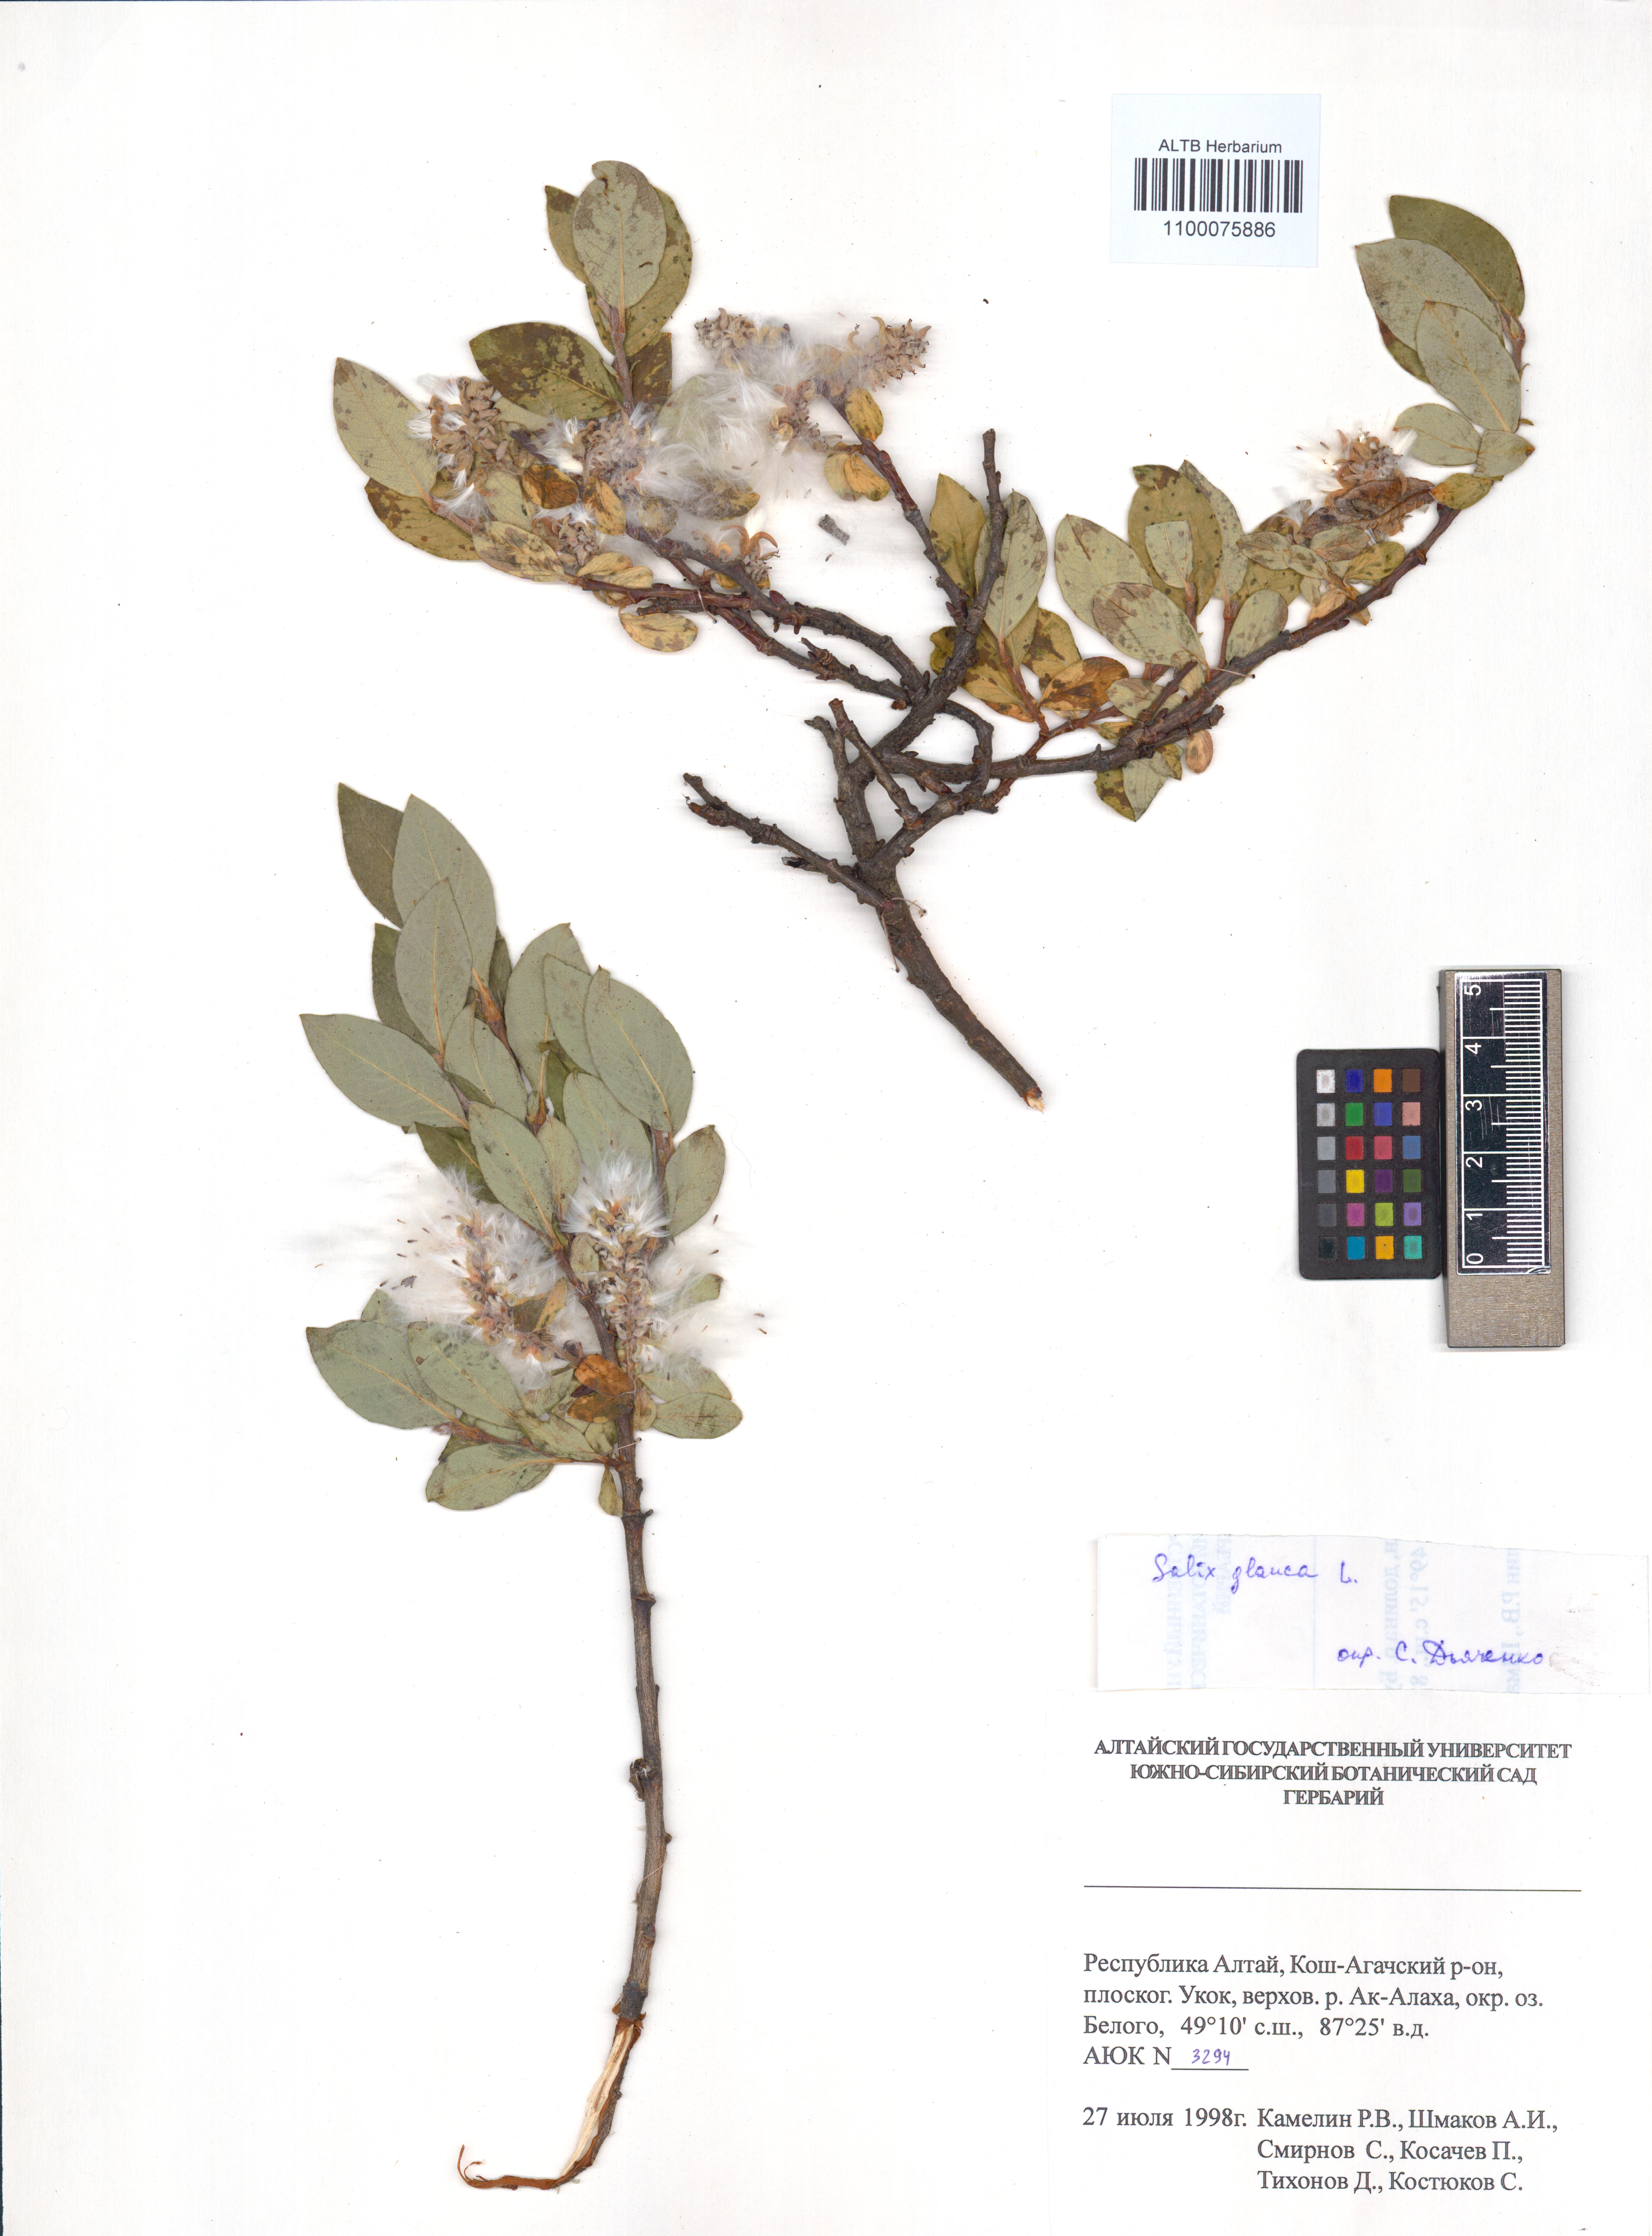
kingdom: Plantae
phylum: Tracheophyta
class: Magnoliopsida
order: Malpighiales
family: Salicaceae
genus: Salix
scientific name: Salix glauca
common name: Glaucous willow
